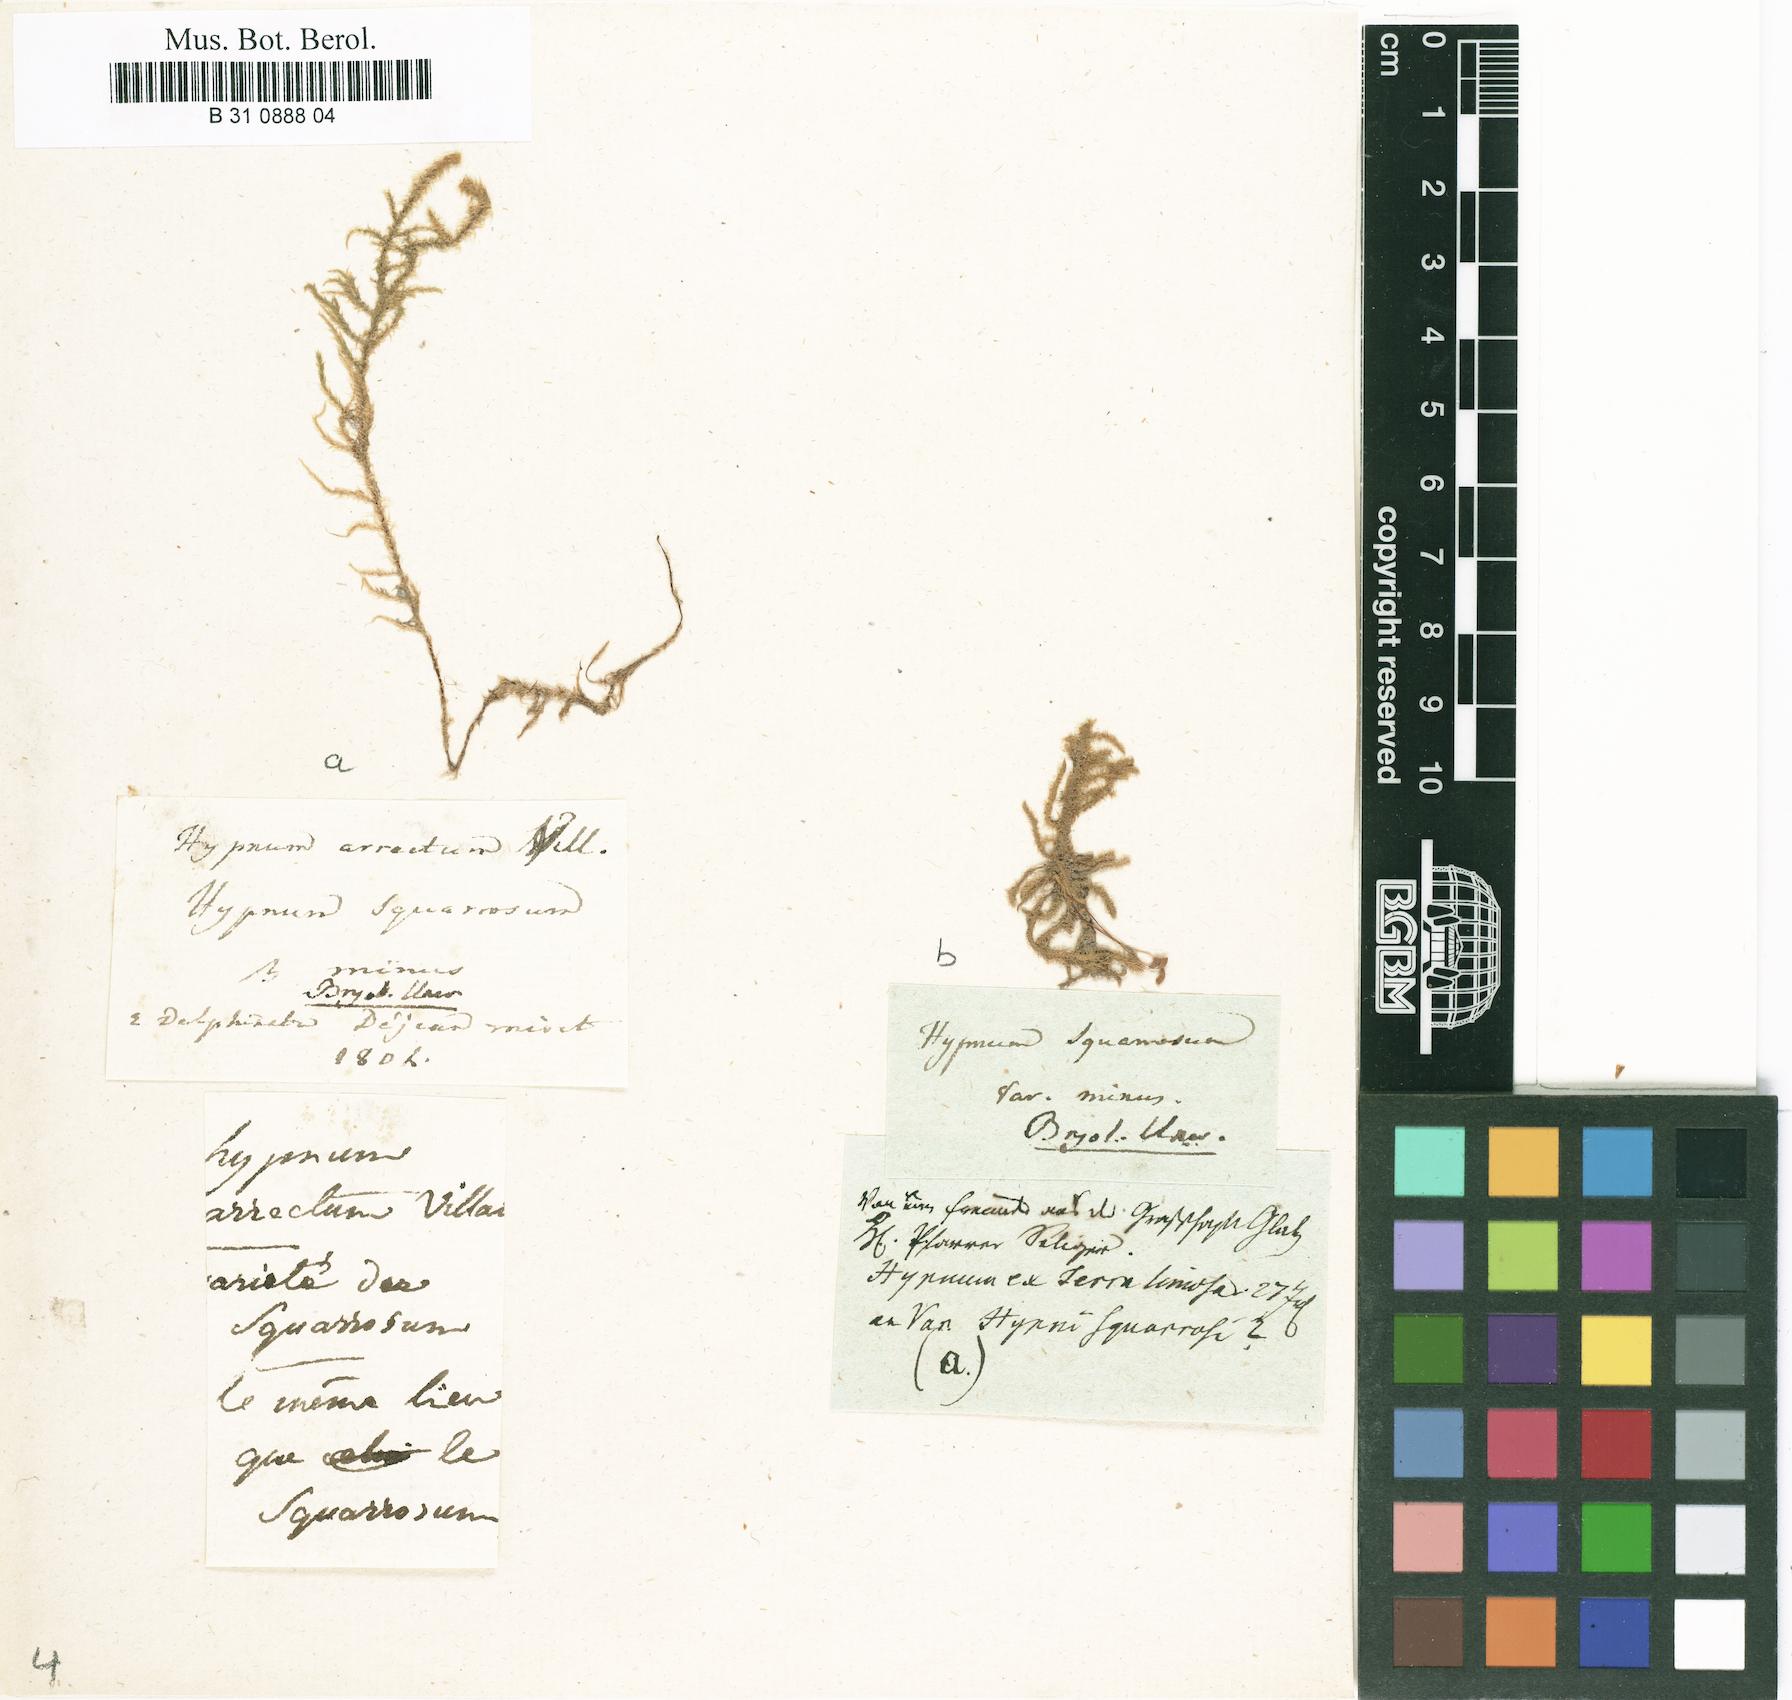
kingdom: Plantae
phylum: Bryophyta
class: Bryopsida
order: Hypnales
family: Hylocomiaceae
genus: Rhytidiadelphus
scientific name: Rhytidiadelphus squarrosus
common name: Springy turf-moss
